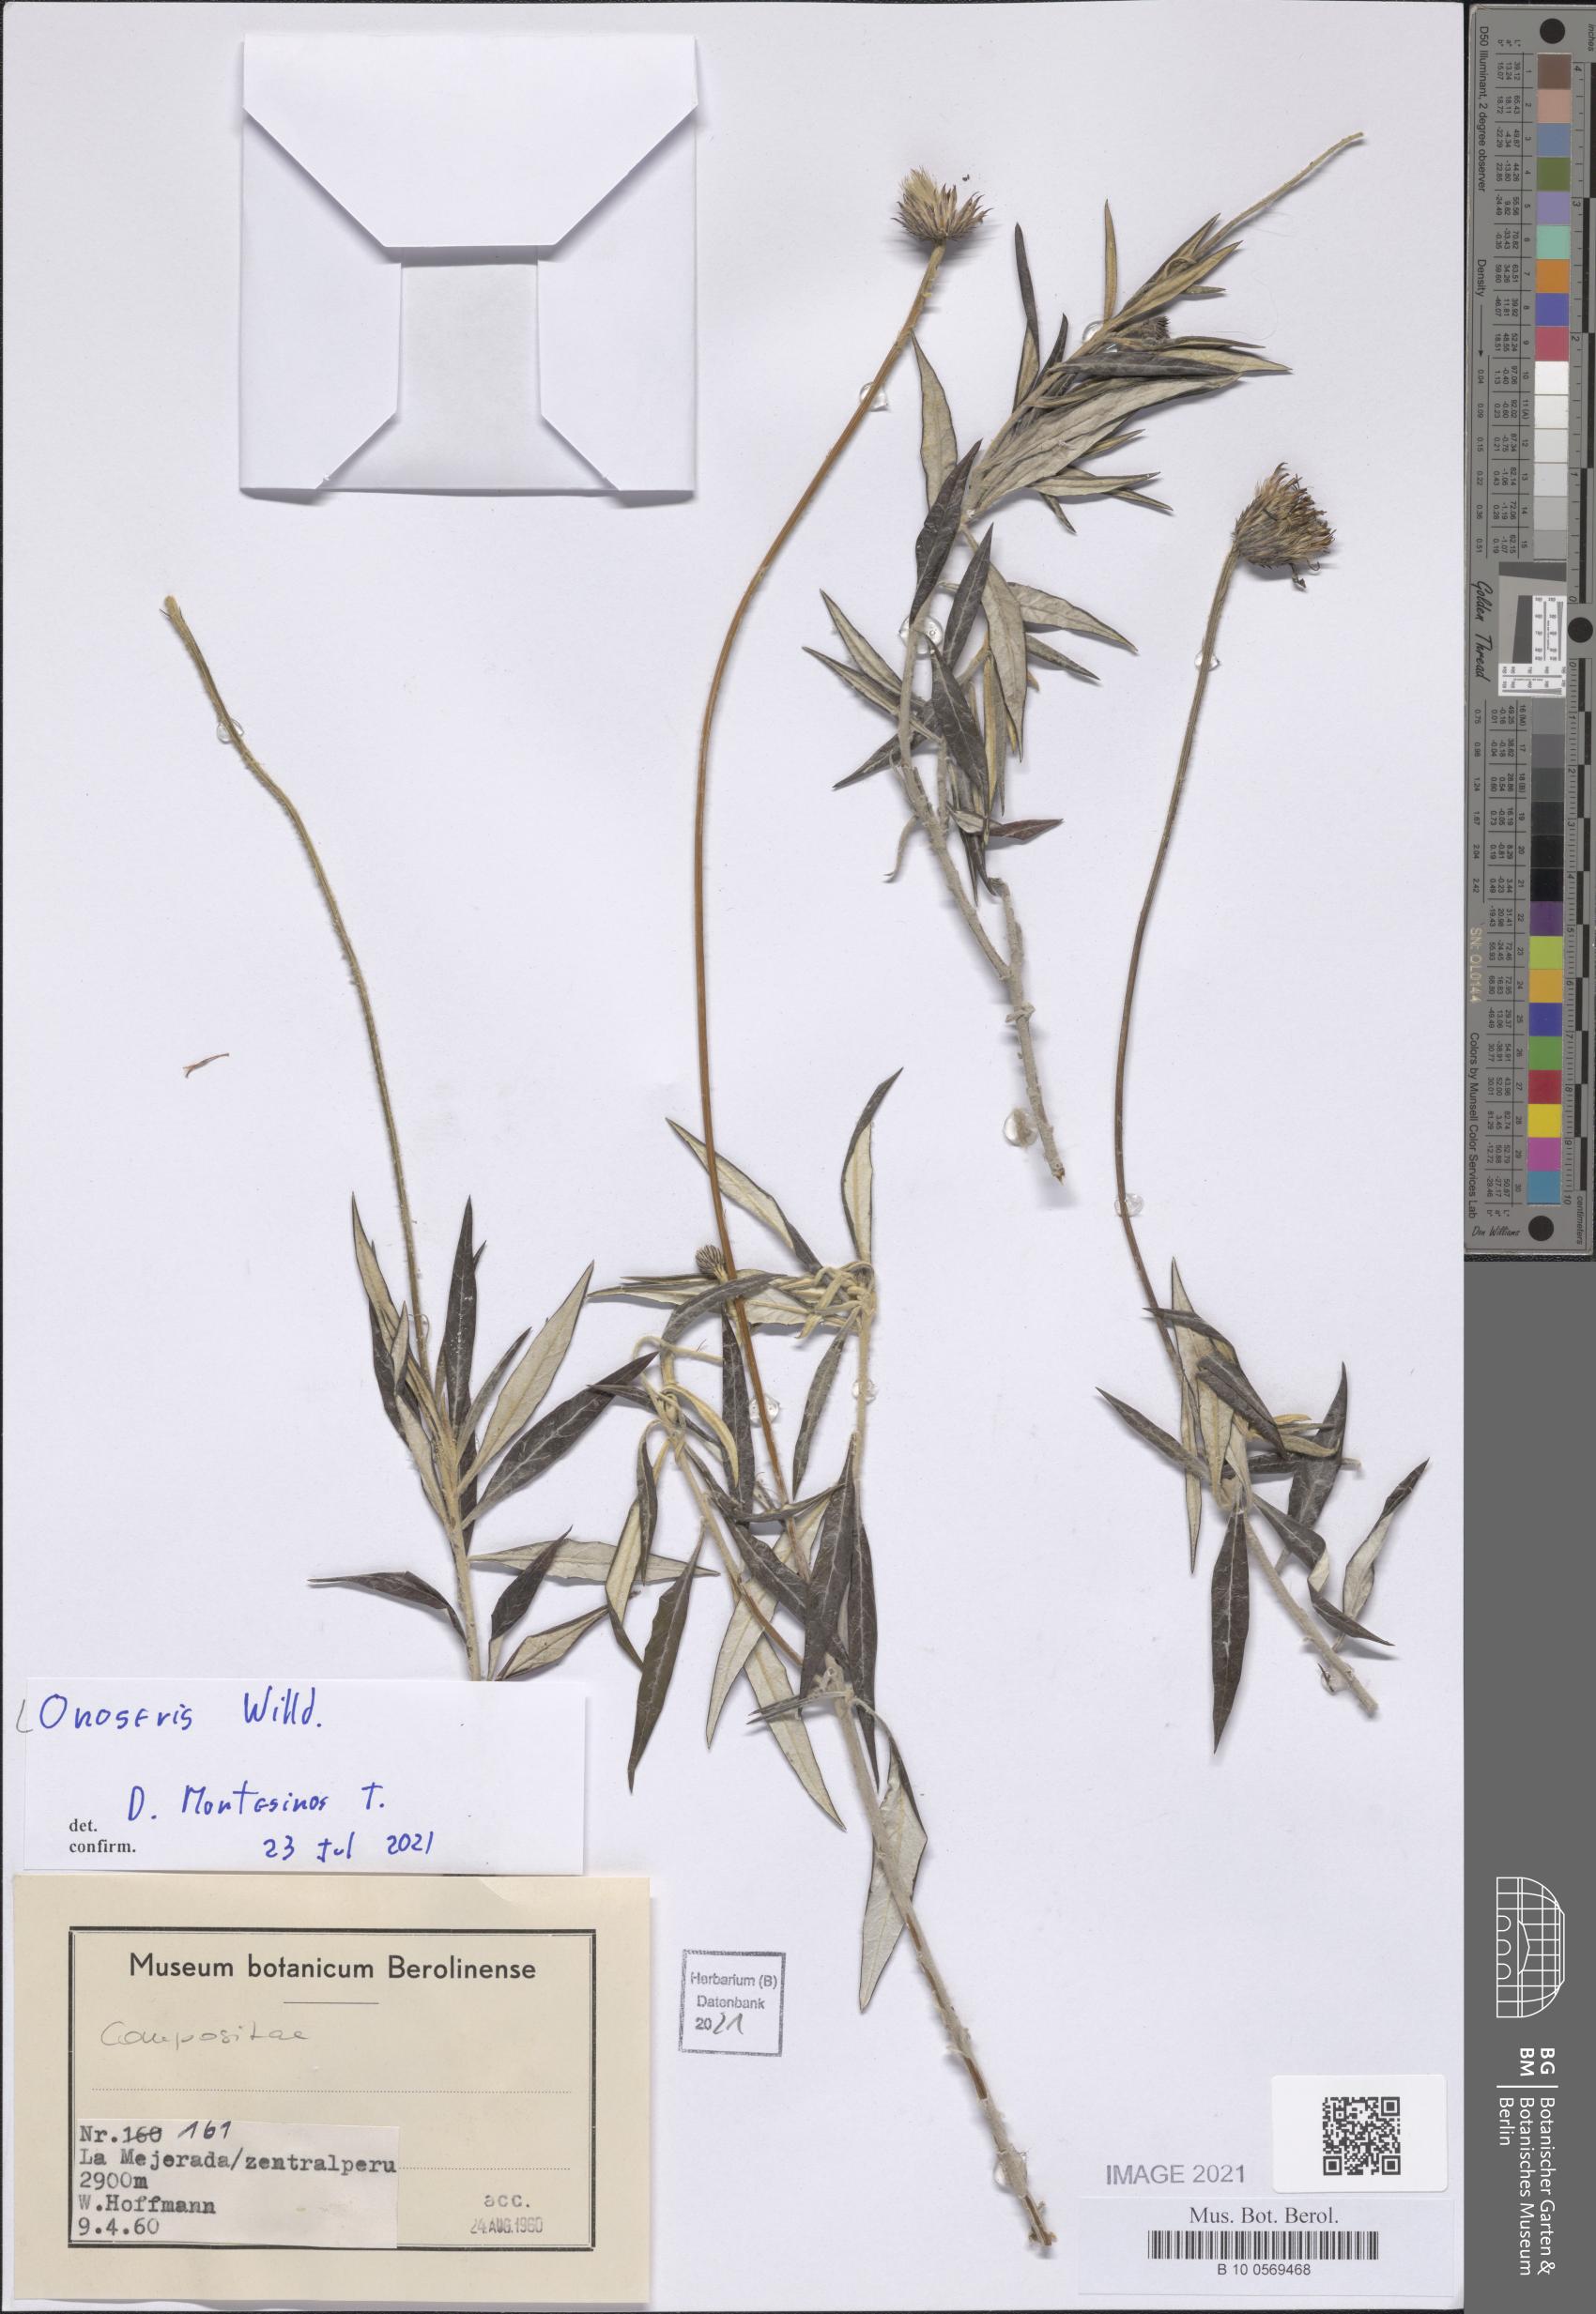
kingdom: Plantae
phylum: Tracheophyta
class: Magnoliopsida
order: Asterales
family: Asteraceae
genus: Onoseris
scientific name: Onoseris
